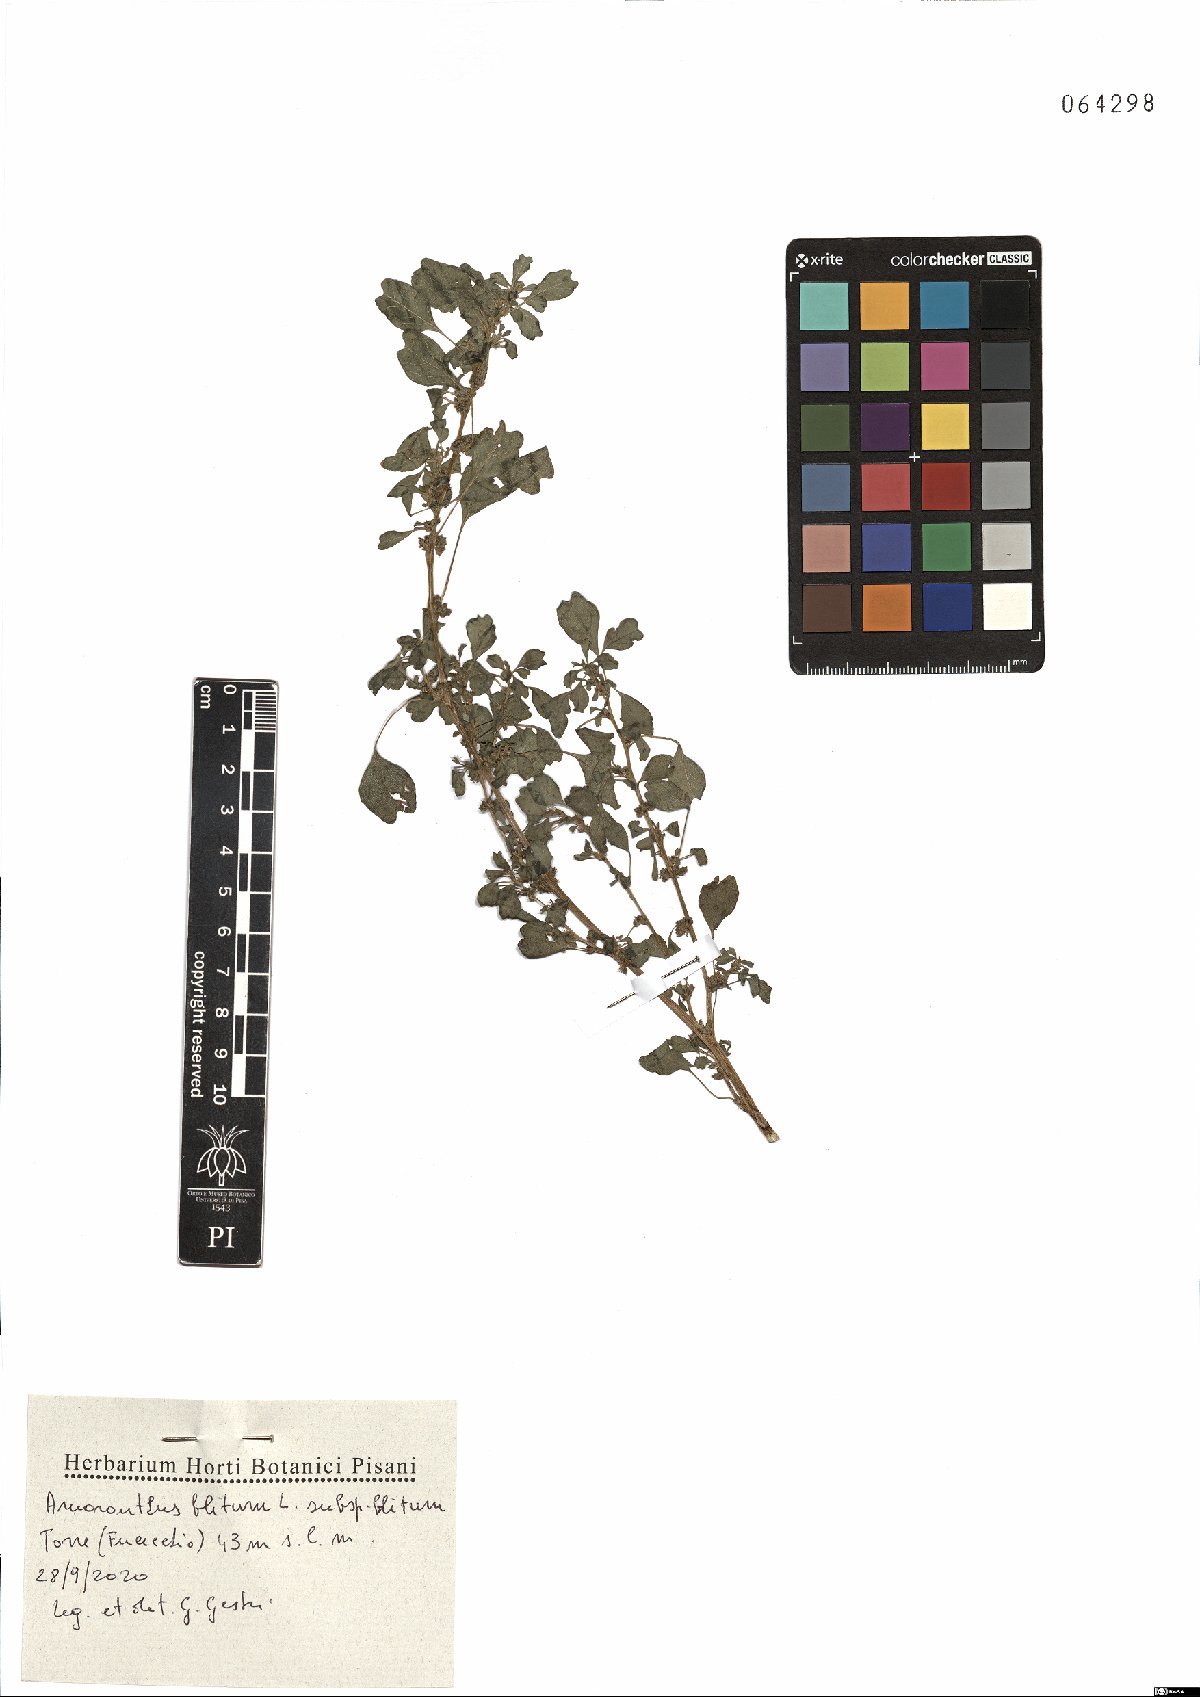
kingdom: Plantae
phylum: Tracheophyta
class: Magnoliopsida
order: Caryophyllales
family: Amaranthaceae
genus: Amaranthus
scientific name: Amaranthus blitum
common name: Purple amaranth
